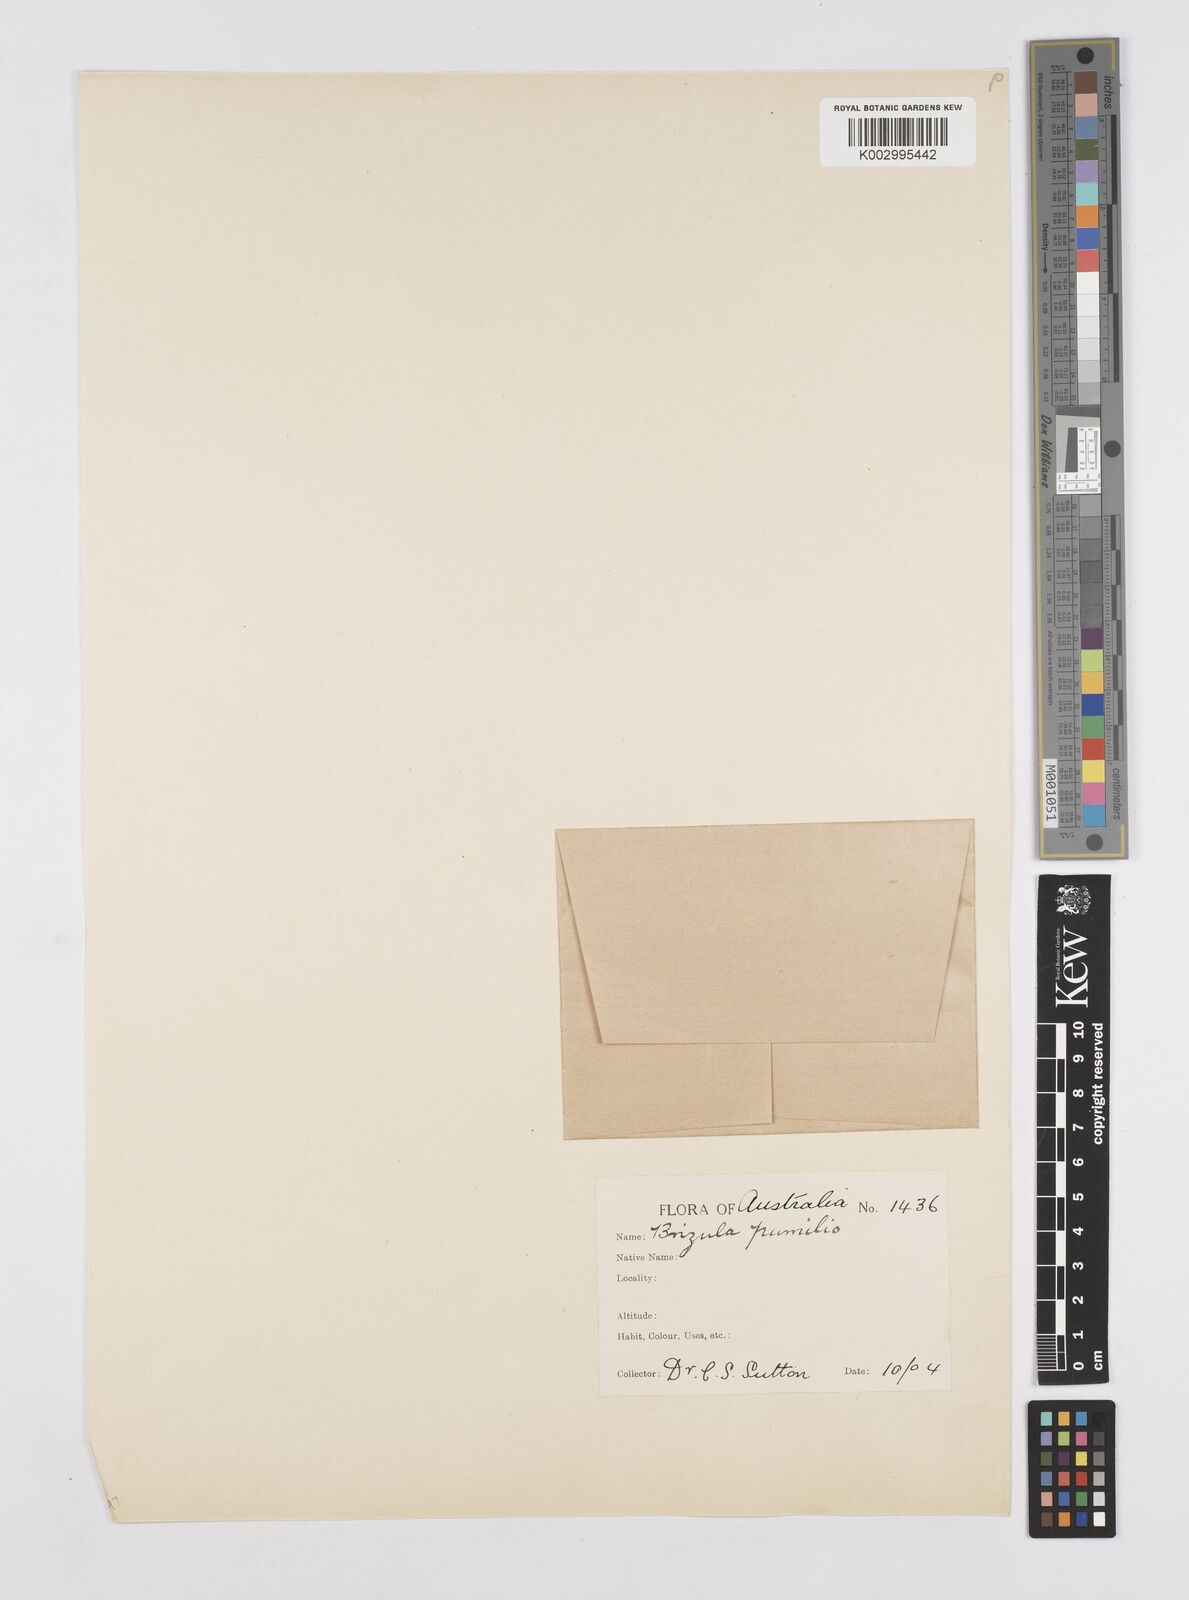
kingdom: Plantae
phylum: Tracheophyta
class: Liliopsida
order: Poales
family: Restionaceae
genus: Aphelia
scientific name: Aphelia pumilio
